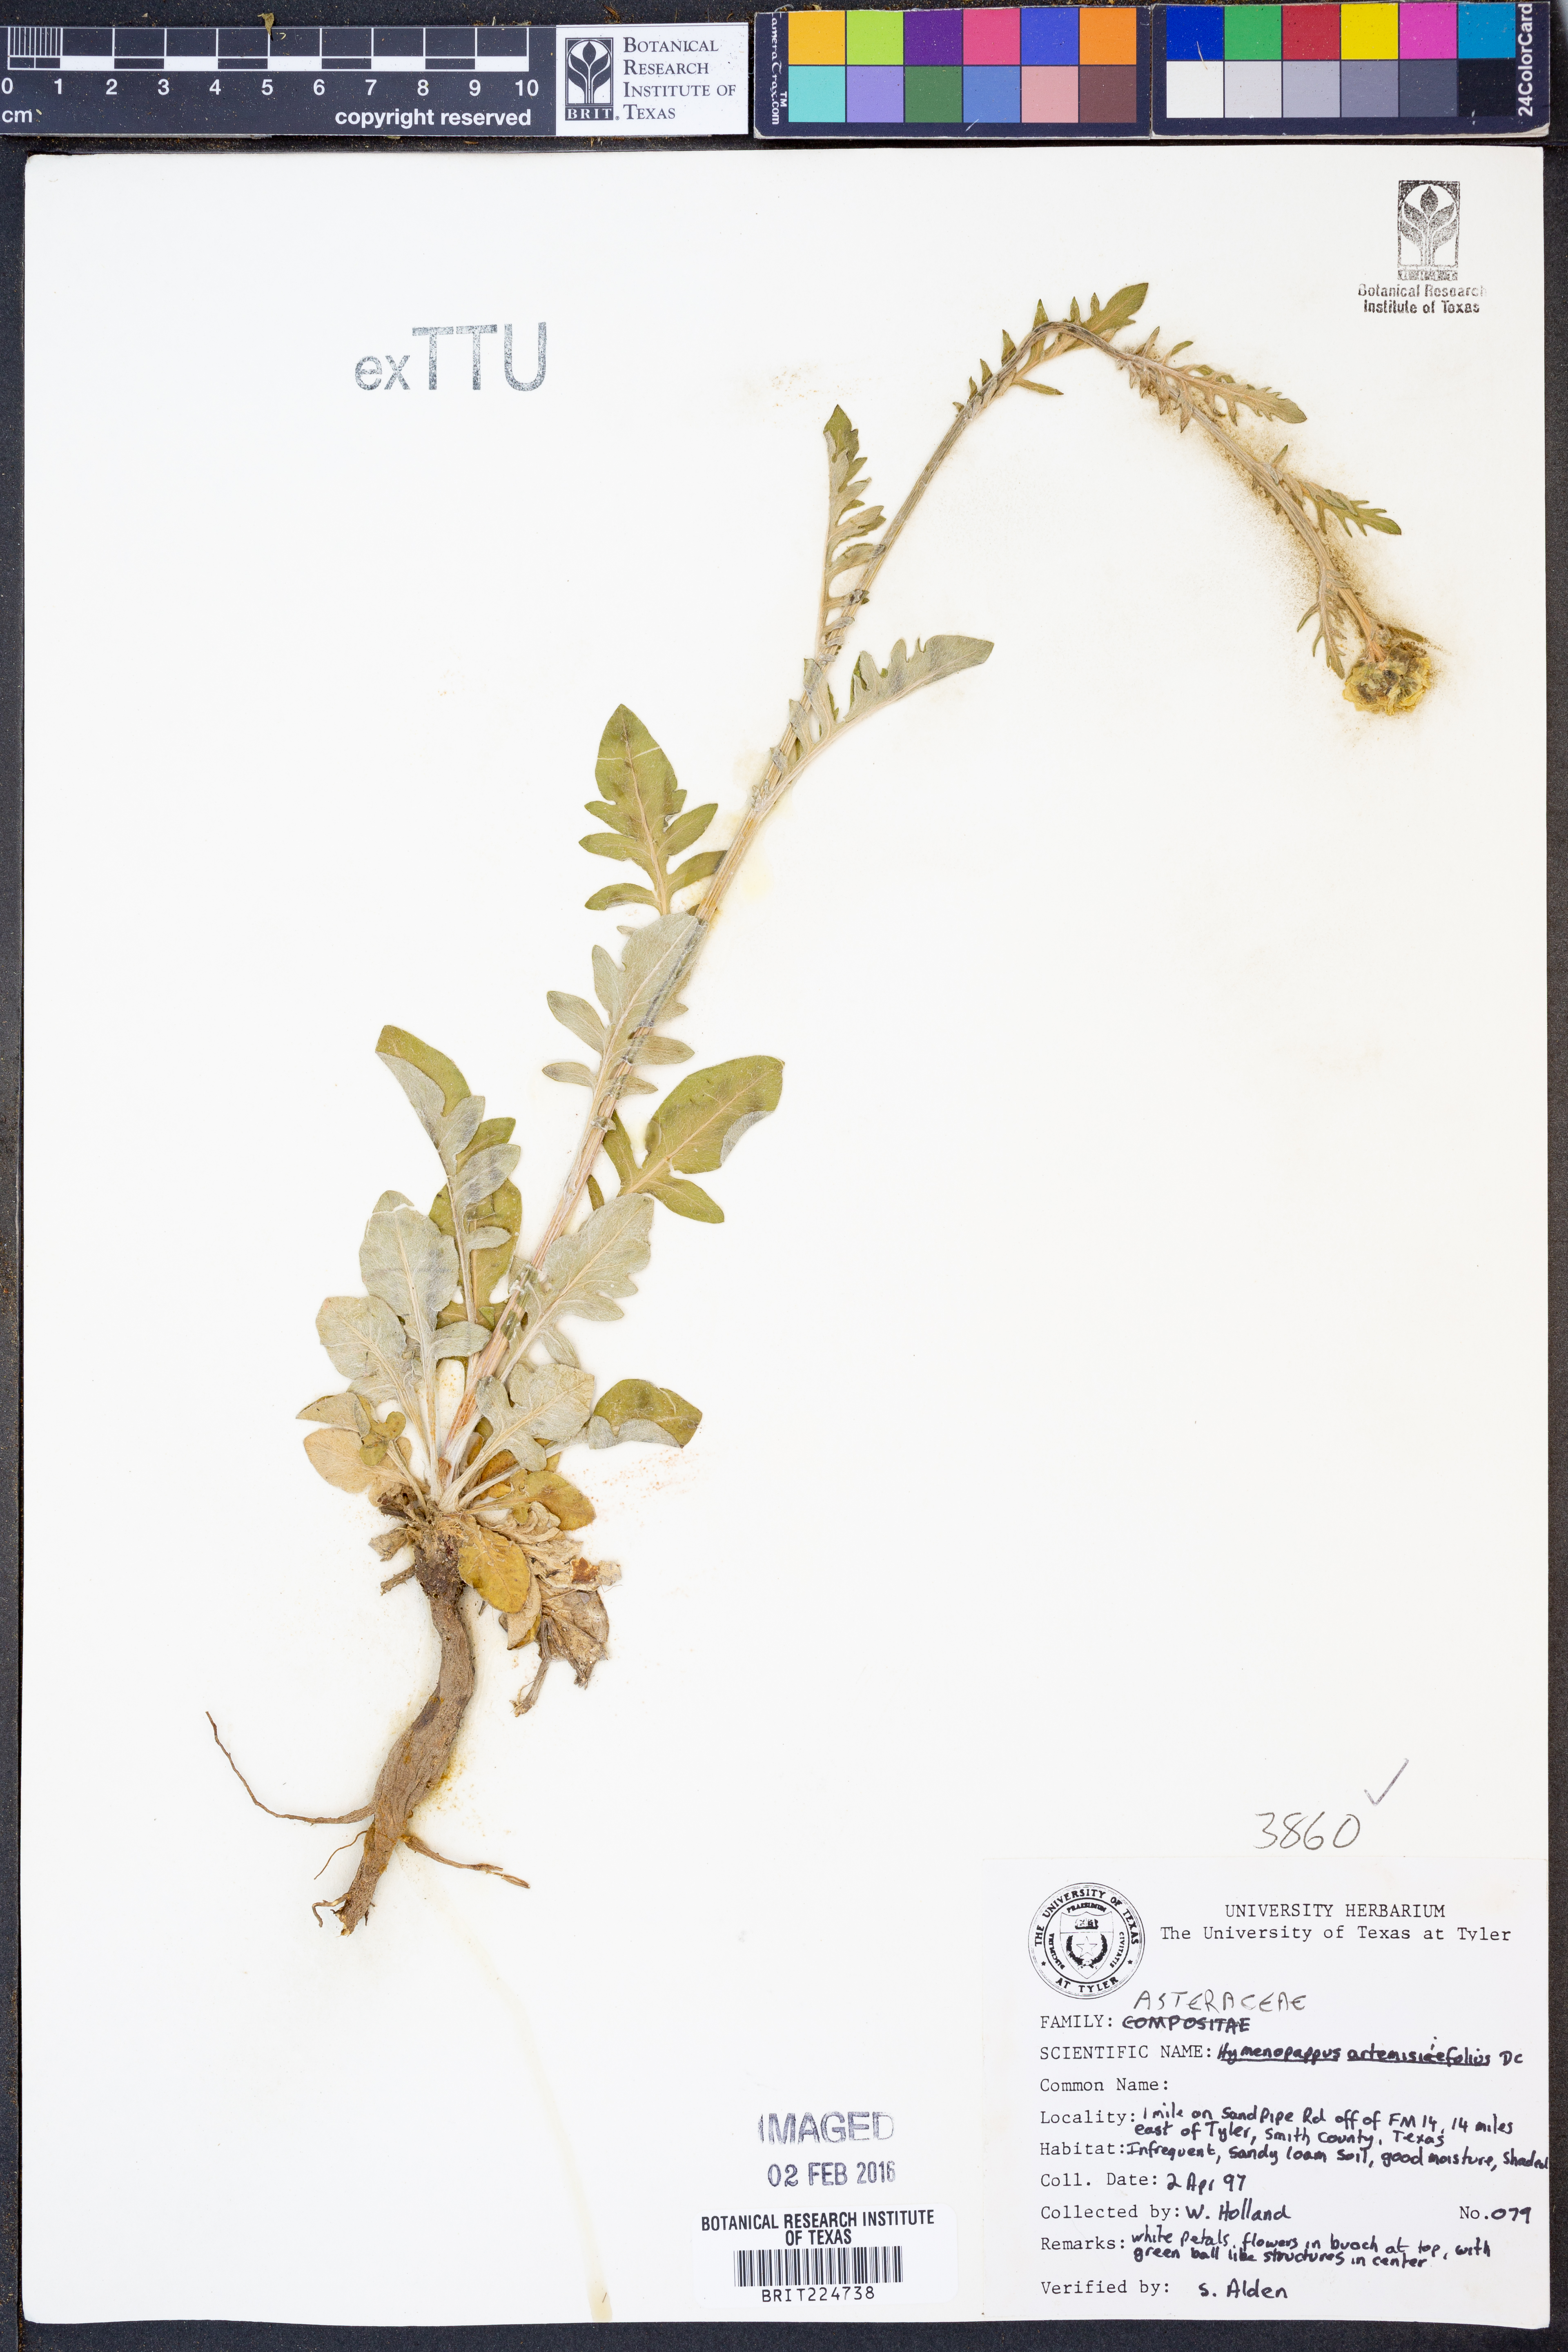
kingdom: Plantae
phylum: Tracheophyta
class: Magnoliopsida
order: Asterales
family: Asteraceae
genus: Hymenopappus
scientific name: Hymenopappus artemisiifolius
